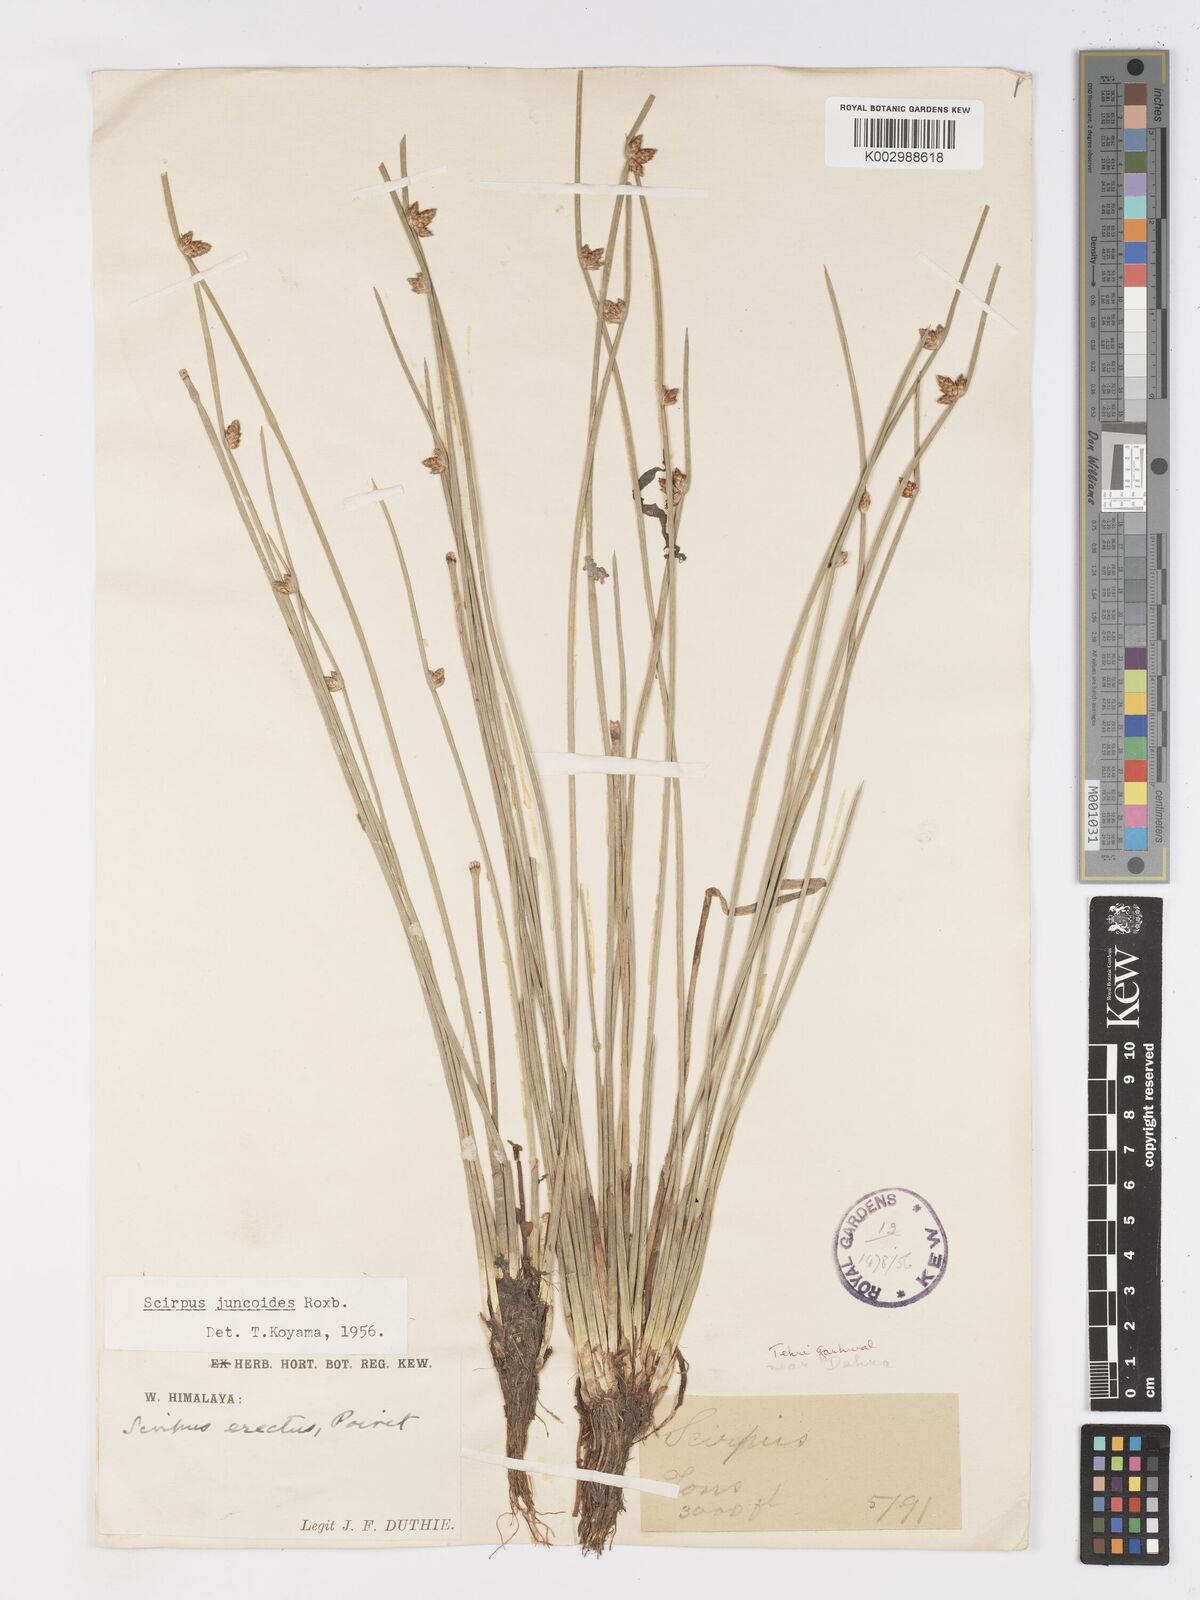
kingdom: Plantae
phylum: Tracheophyta
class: Liliopsida
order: Poales
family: Cyperaceae
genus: Schoenoplectiella
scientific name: Schoenoplectiella juncoides
